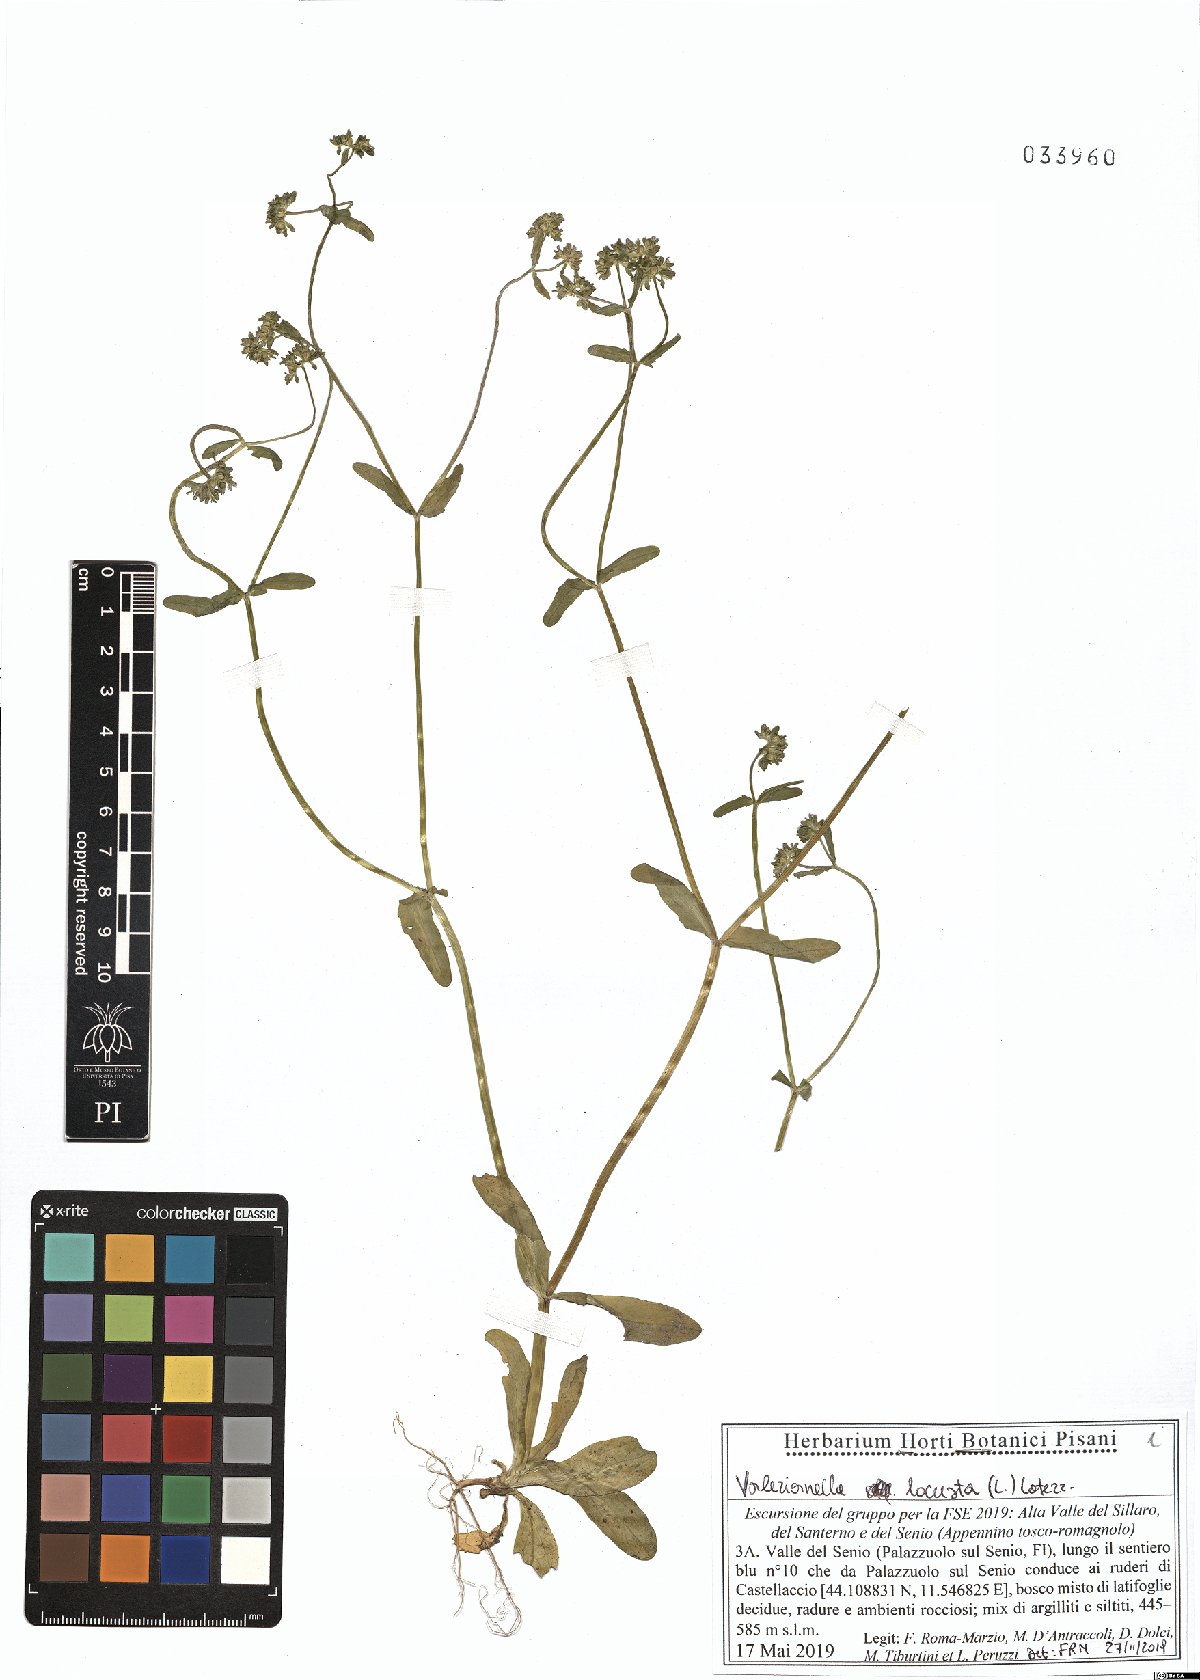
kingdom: Plantae
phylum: Tracheophyta
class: Magnoliopsida
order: Dipsacales
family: Caprifoliaceae
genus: Valerianella
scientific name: Valerianella locusta
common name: Common cornsalad
